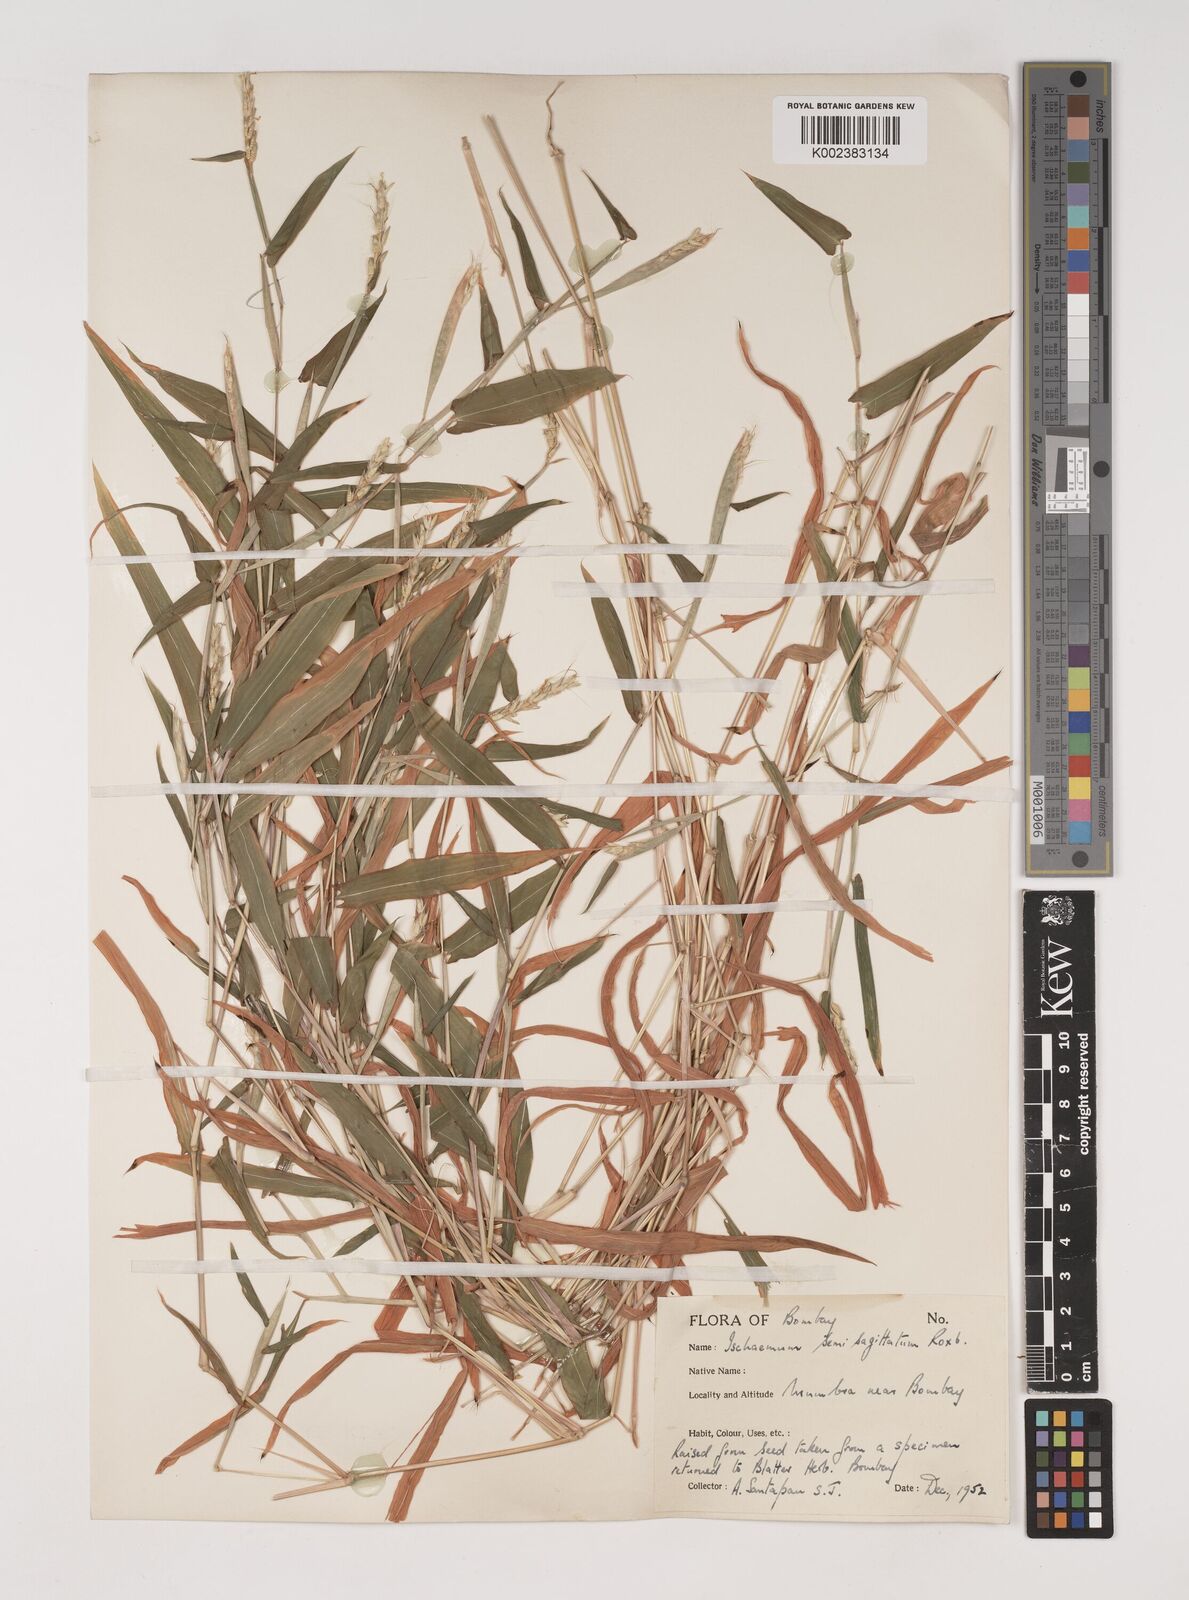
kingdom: Plantae
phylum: Tracheophyta
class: Liliopsida
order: Poales
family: Poaceae
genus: Ischaemum
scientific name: Ischaemum semisagittatum
